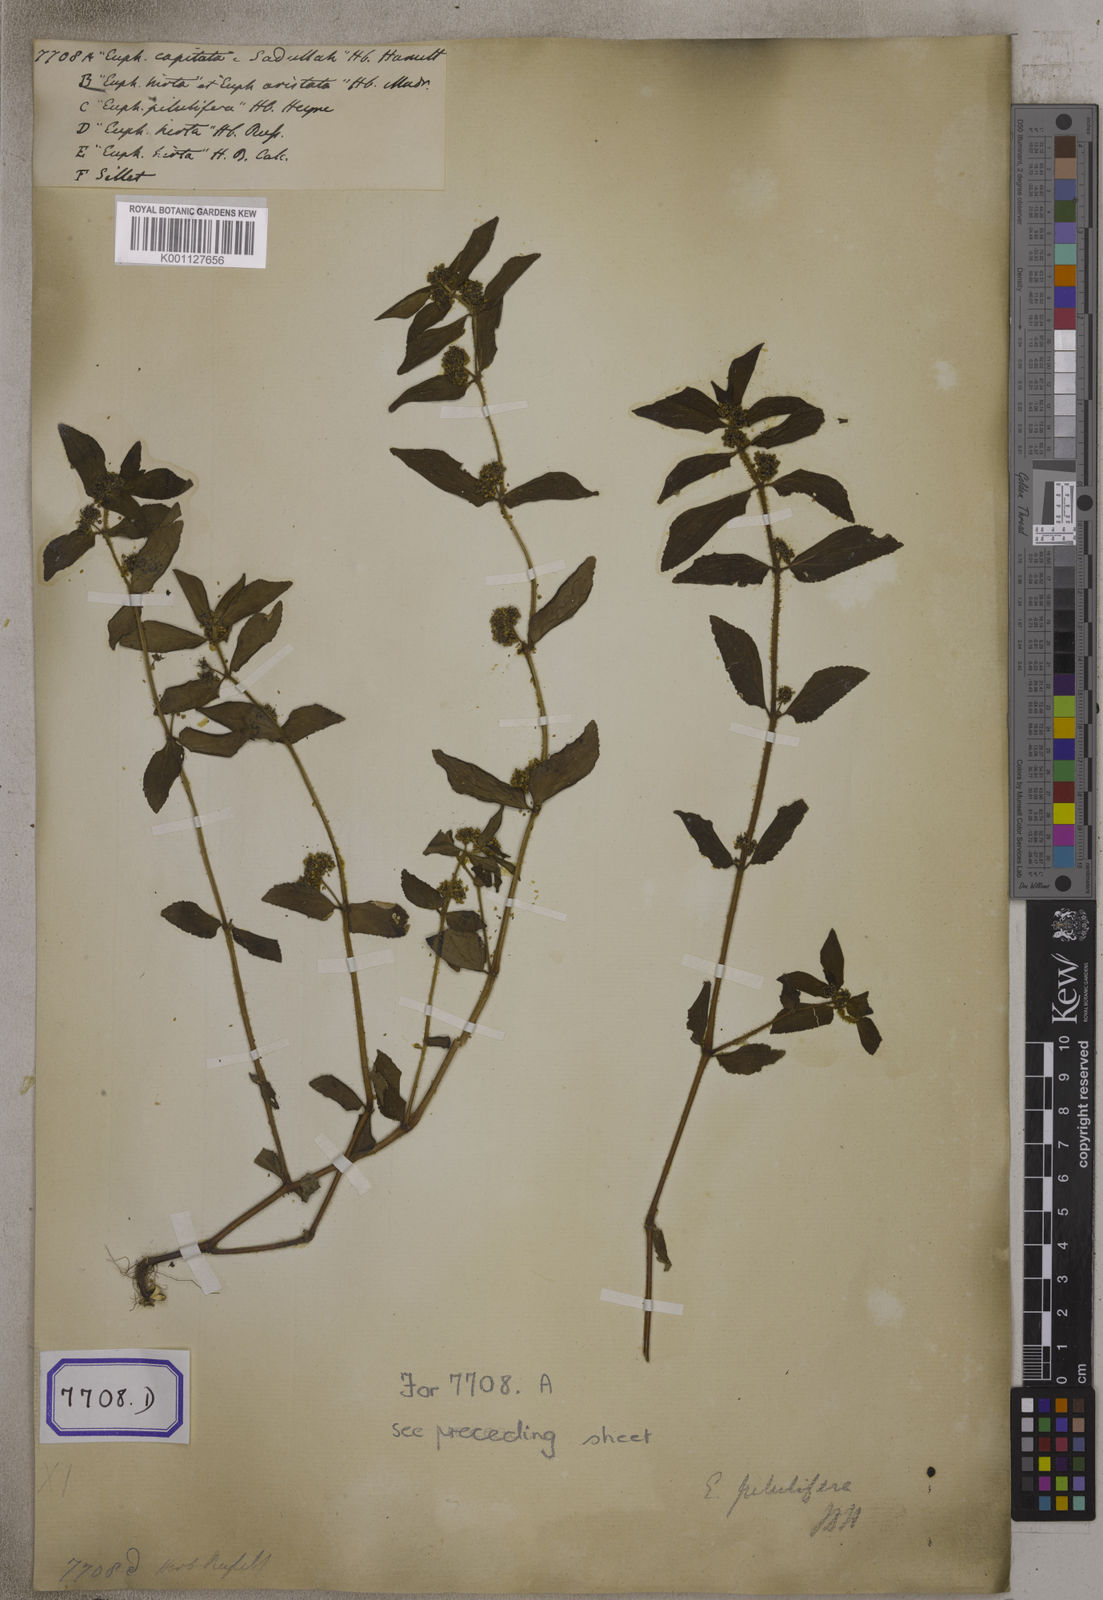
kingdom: Plantae
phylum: Tracheophyta
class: Magnoliopsida
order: Malpighiales
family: Euphorbiaceae
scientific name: Euphorbiaceae
